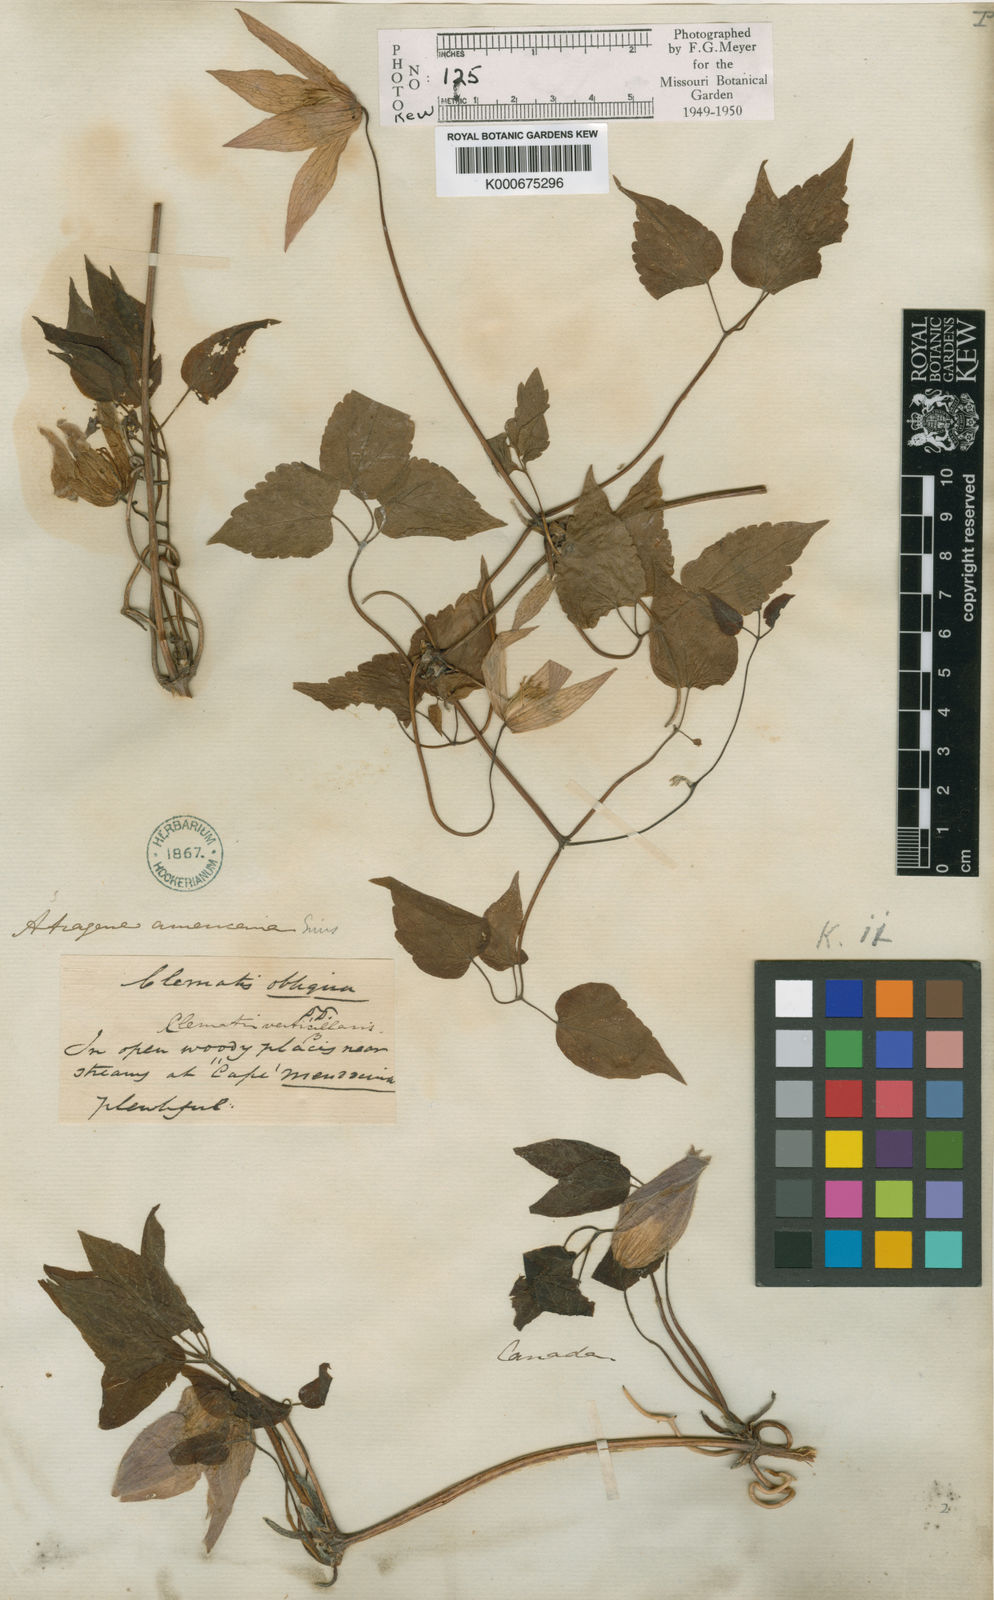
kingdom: Plantae
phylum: Tracheophyta
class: Magnoliopsida
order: Ranunculales
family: Ranunculaceae
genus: Clematis
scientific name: Clematis columbiana
